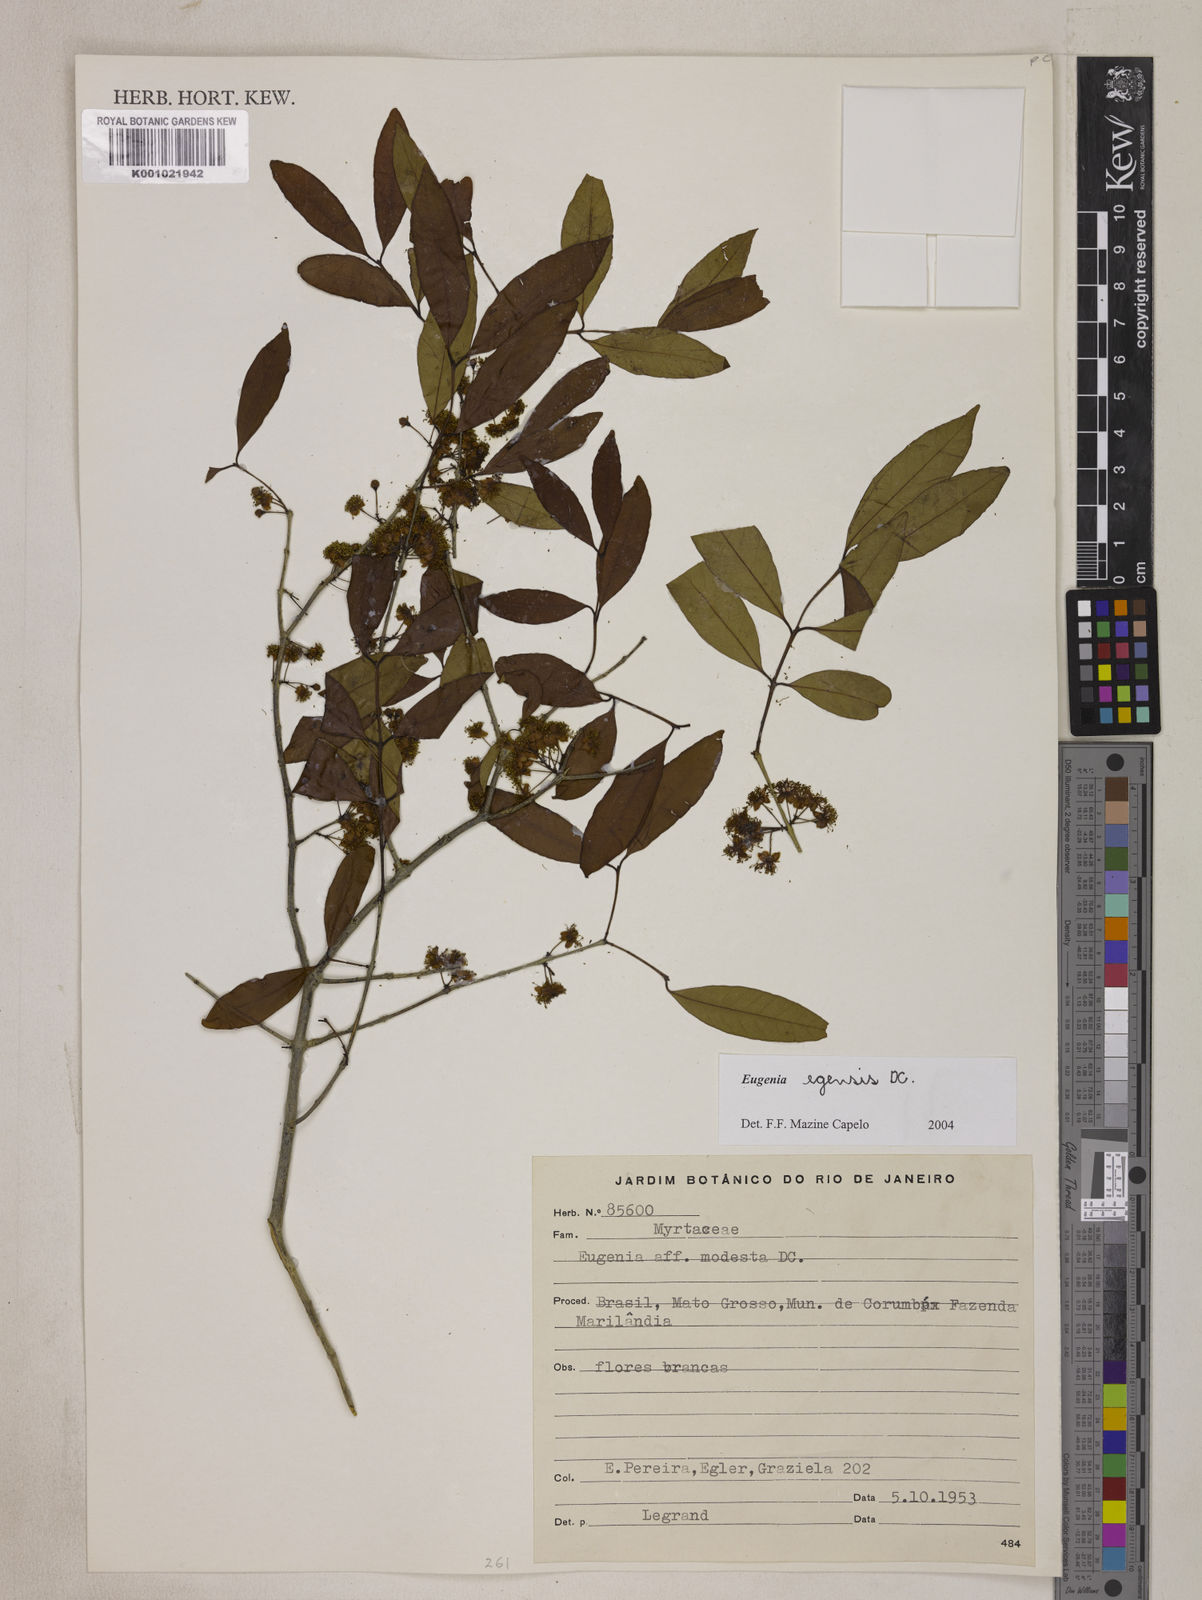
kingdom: Plantae
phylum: Tracheophyta
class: Magnoliopsida
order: Myrtales
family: Myrtaceae
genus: Eugenia
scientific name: Eugenia egensis
